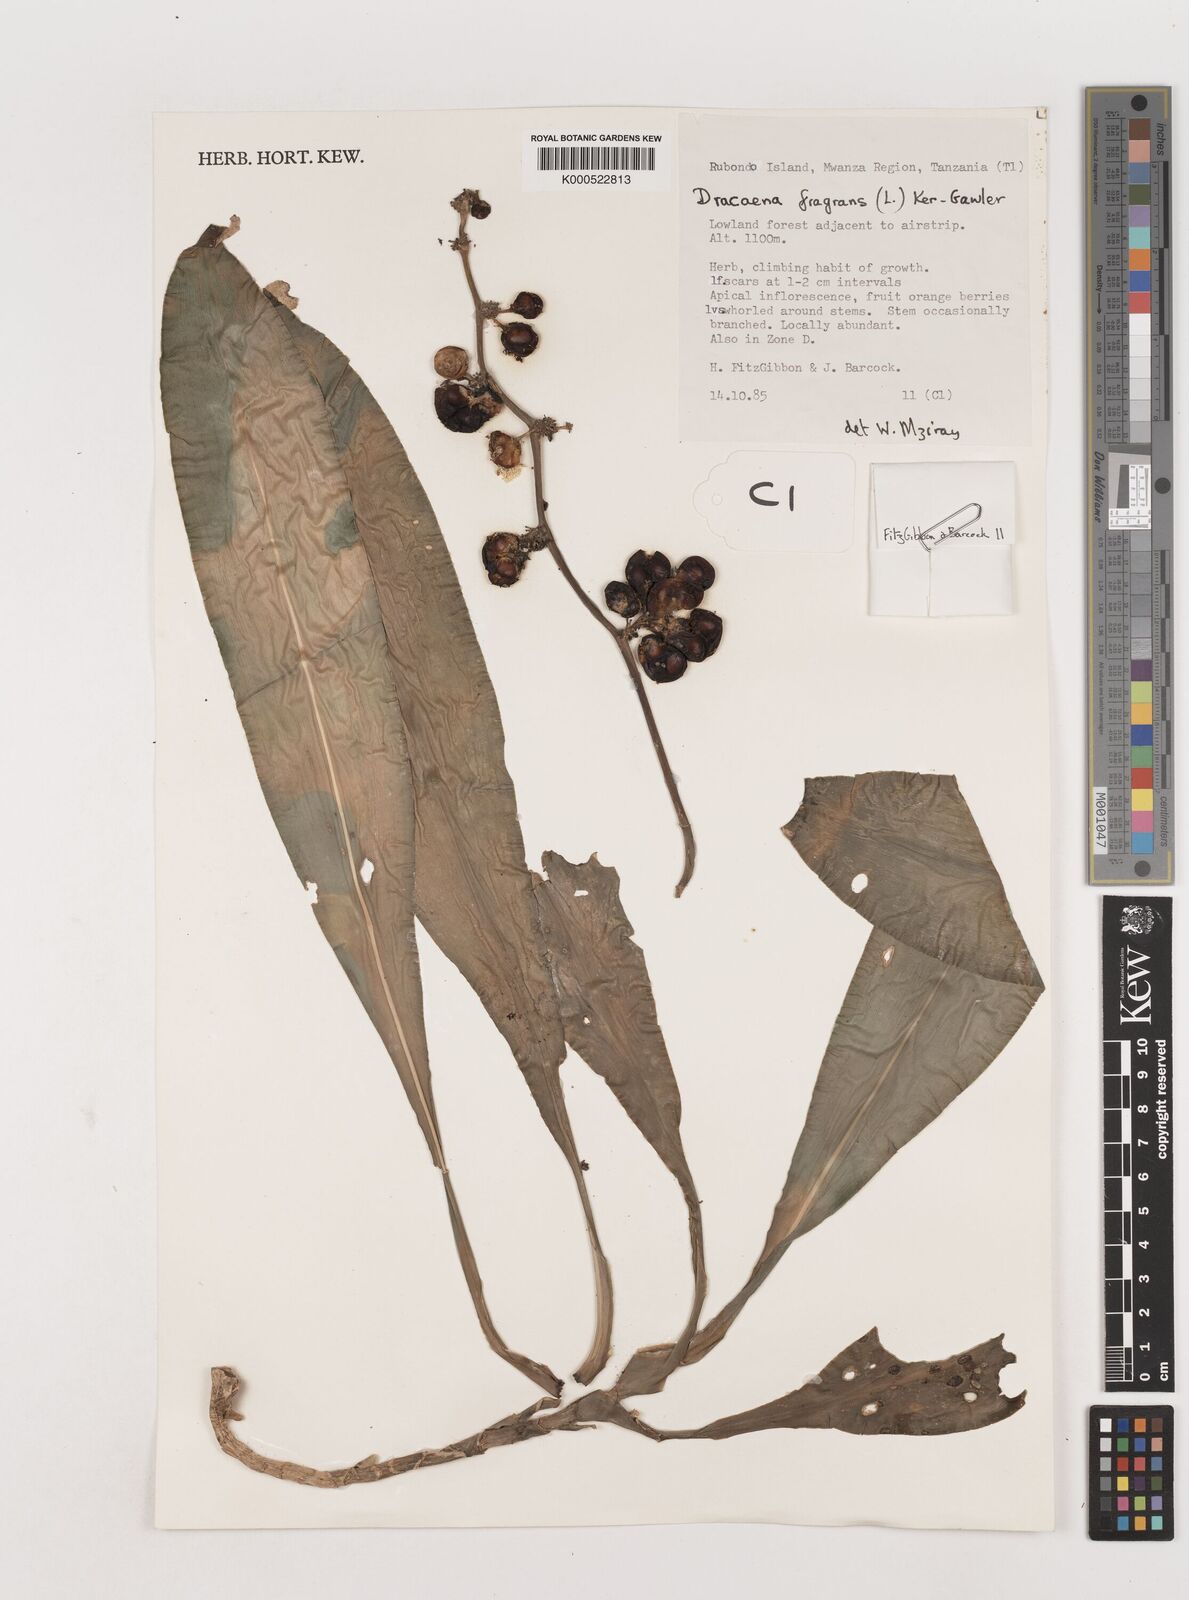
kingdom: Plantae
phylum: Tracheophyta
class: Liliopsida
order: Asparagales
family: Asparagaceae
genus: Dracaena
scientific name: Dracaena fragrans
